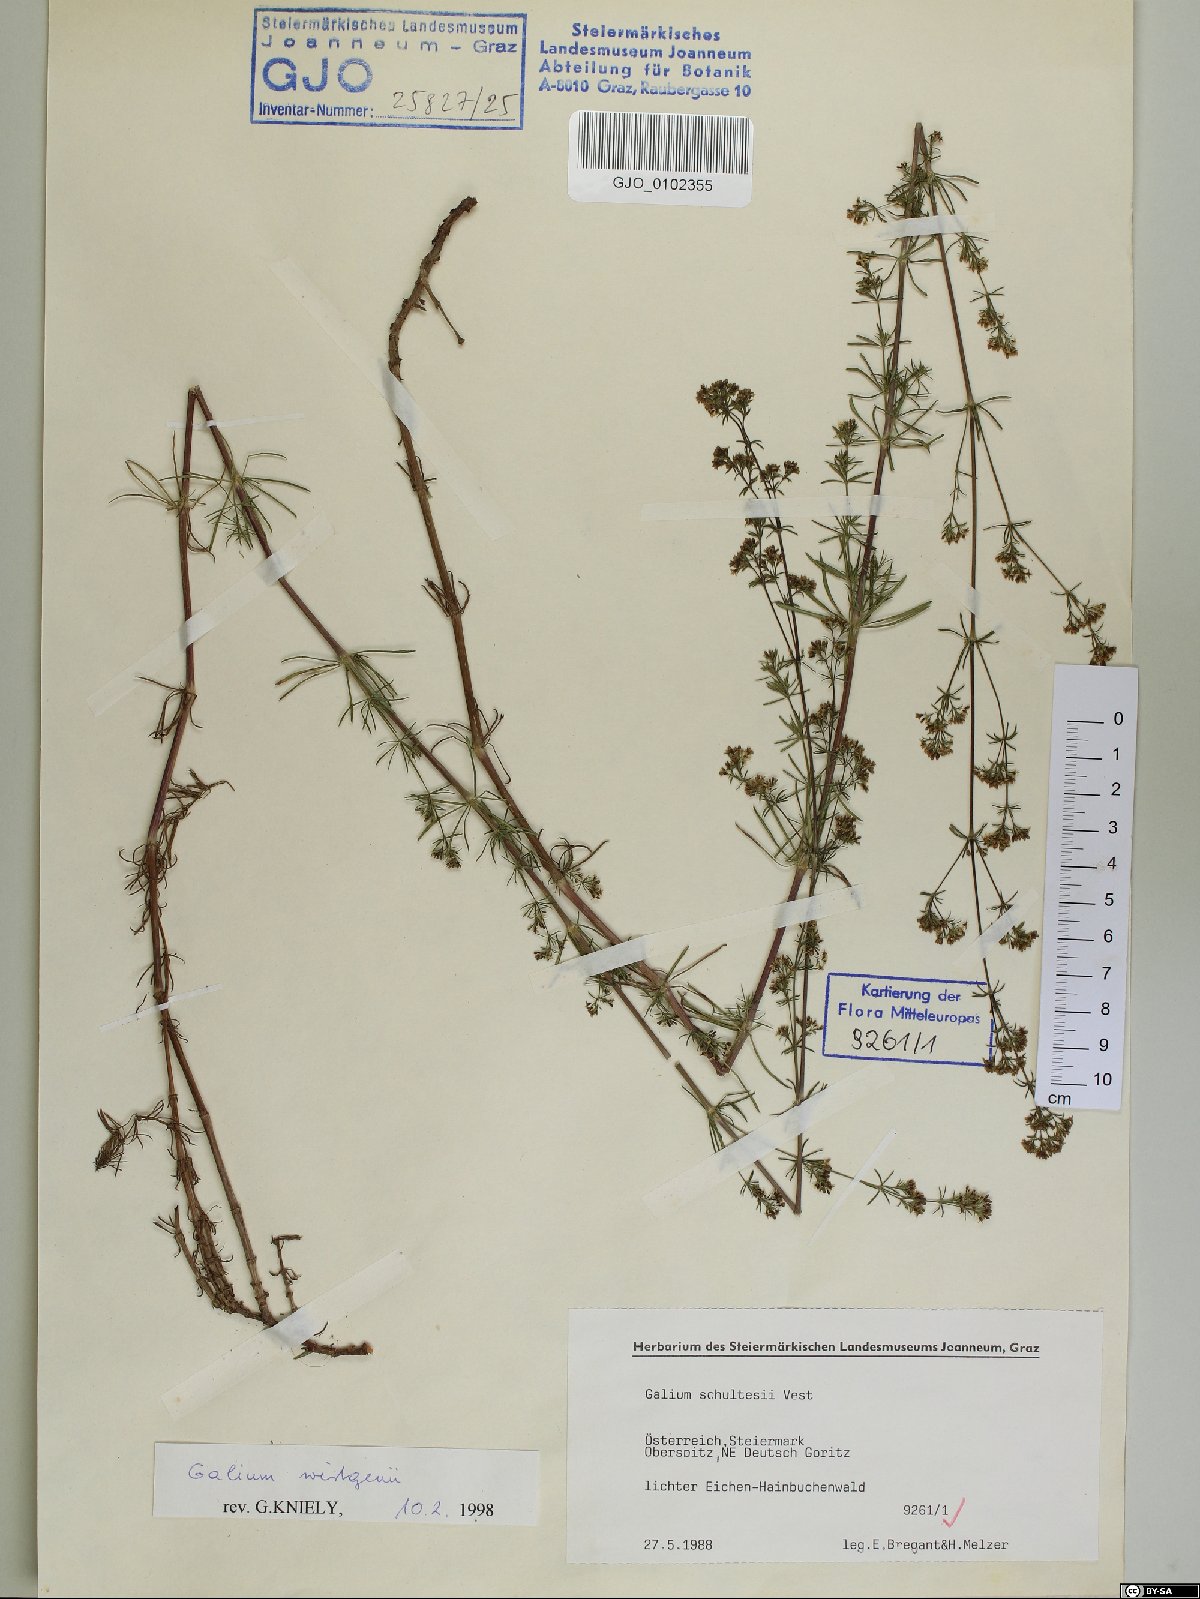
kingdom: Plantae
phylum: Tracheophyta
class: Magnoliopsida
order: Gentianales
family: Rubiaceae
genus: Galium
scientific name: Galium verum
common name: Lady's bedstraw
